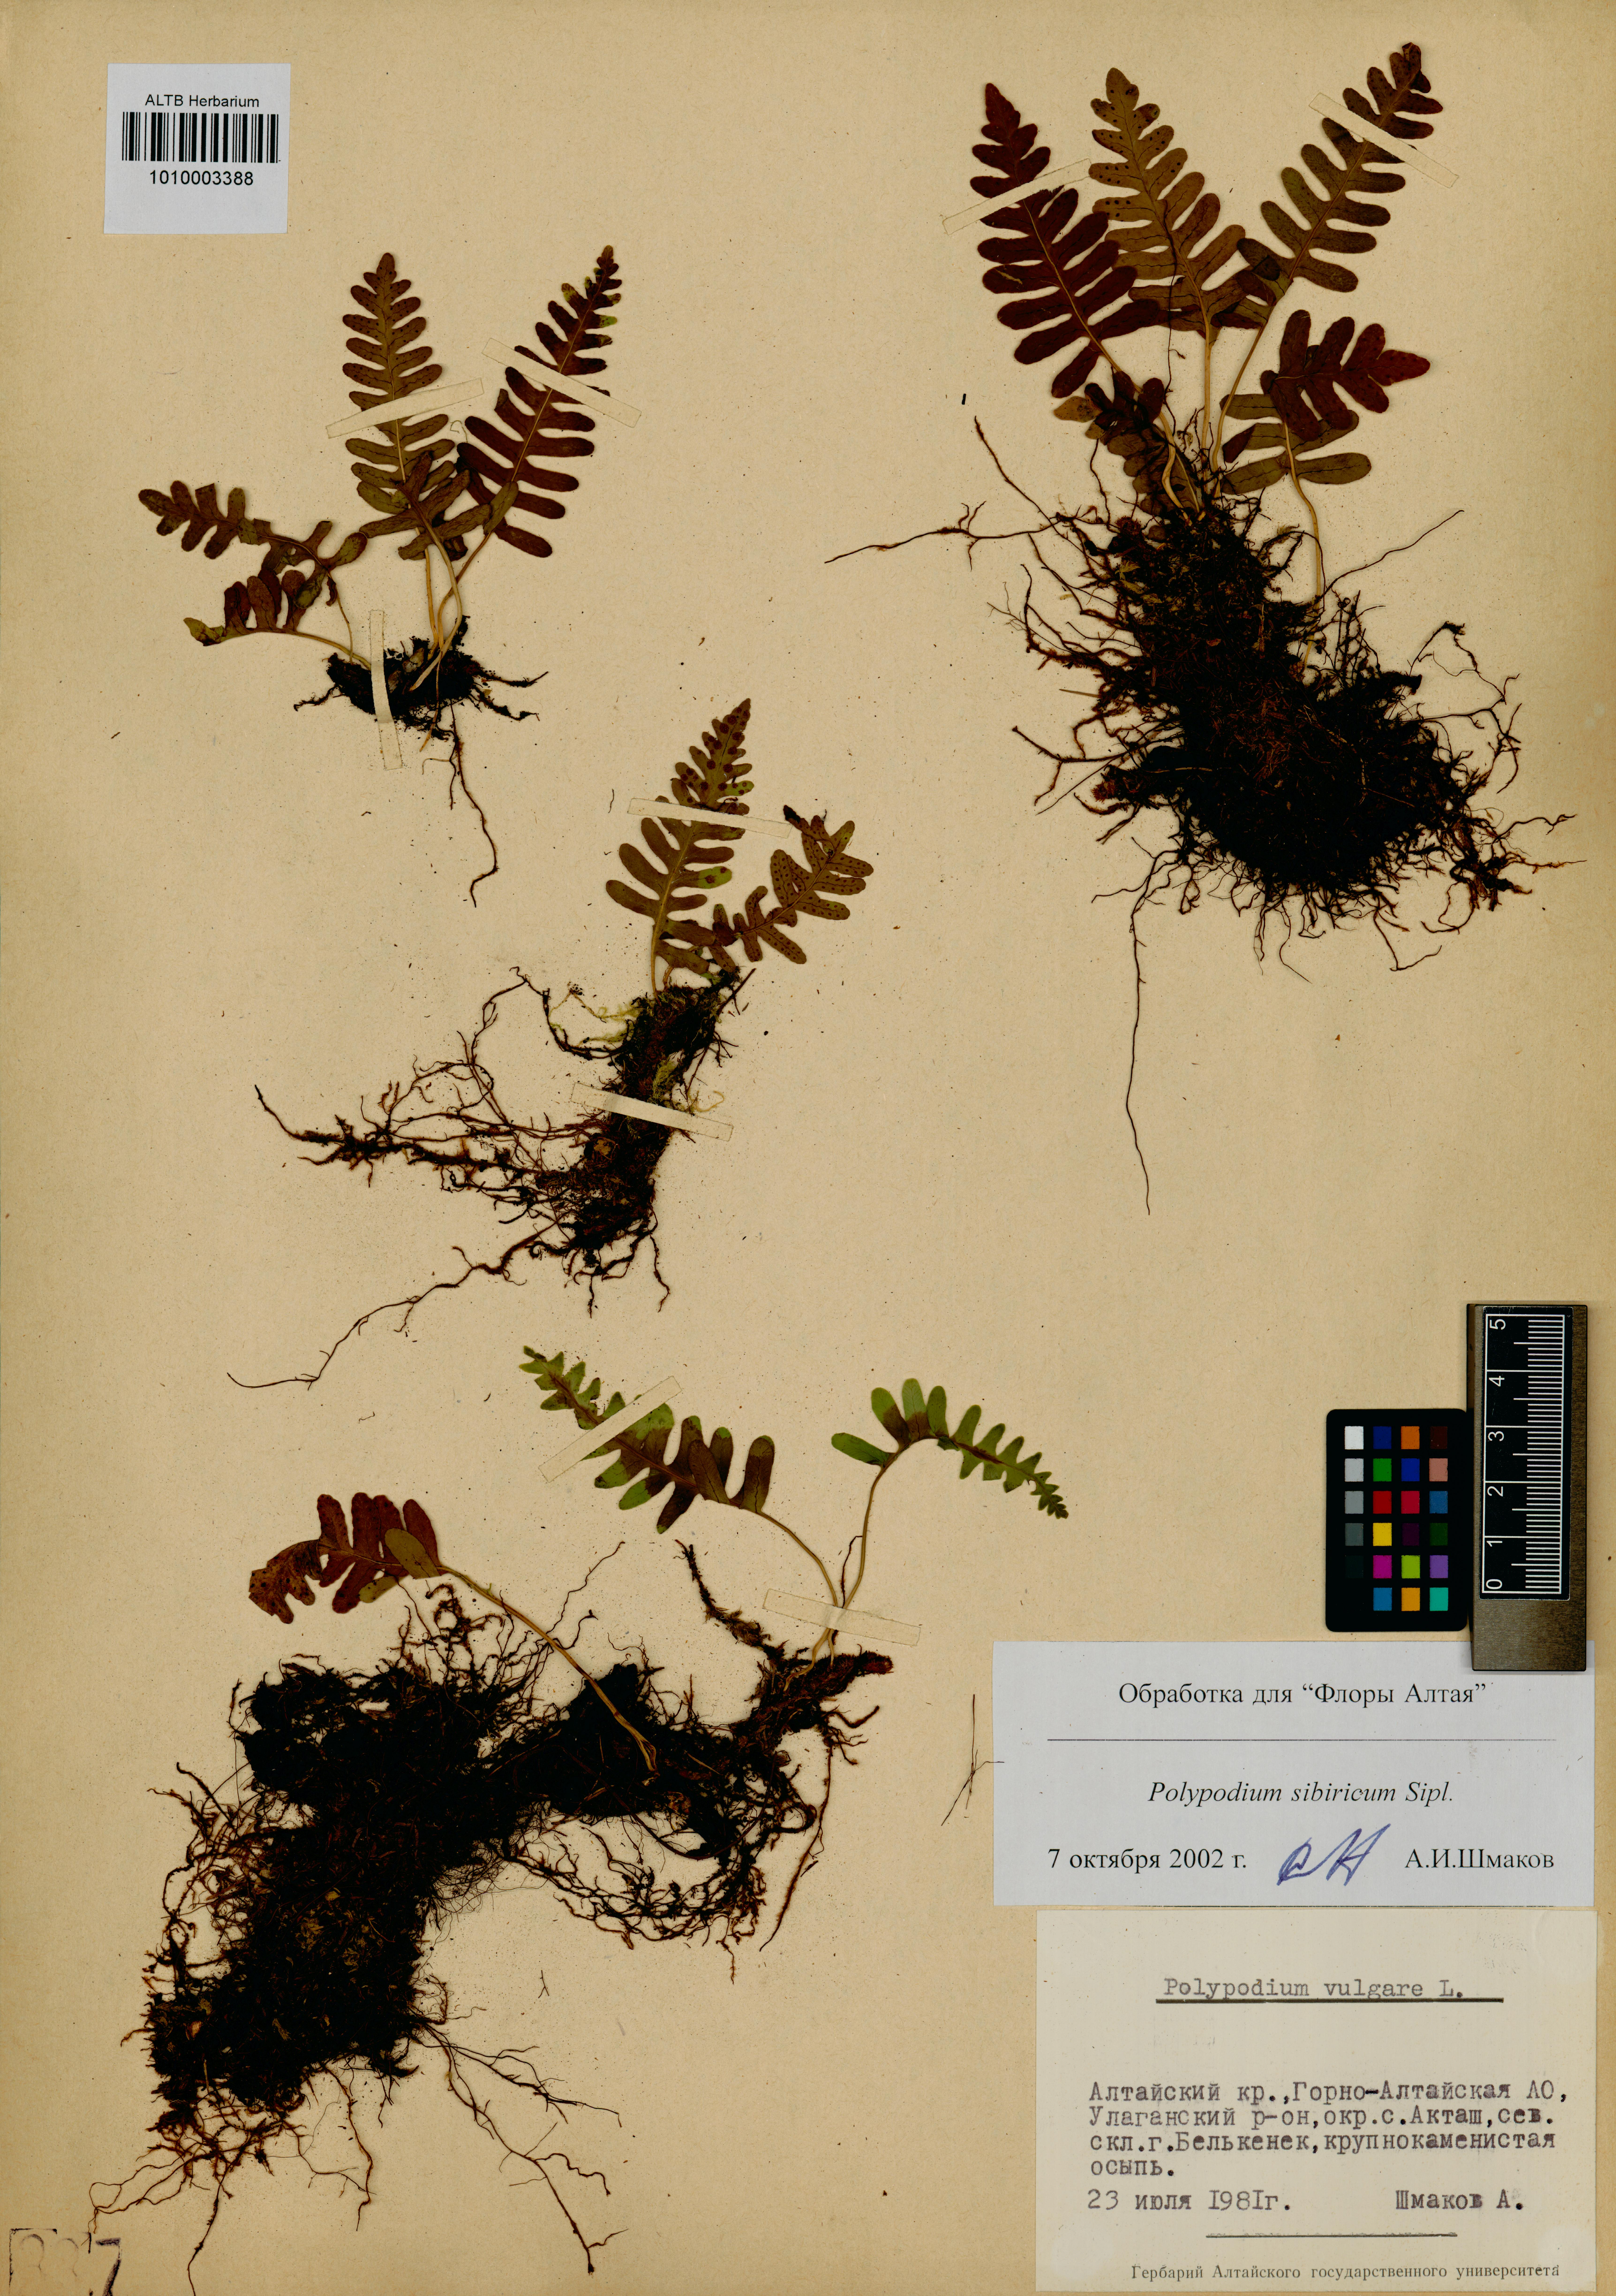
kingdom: Plantae
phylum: Tracheophyta
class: Polypodiopsida
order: Polypodiales
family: Polypodiaceae
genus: Polypodium
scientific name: Polypodium sibiricum
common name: Siberian polypody
